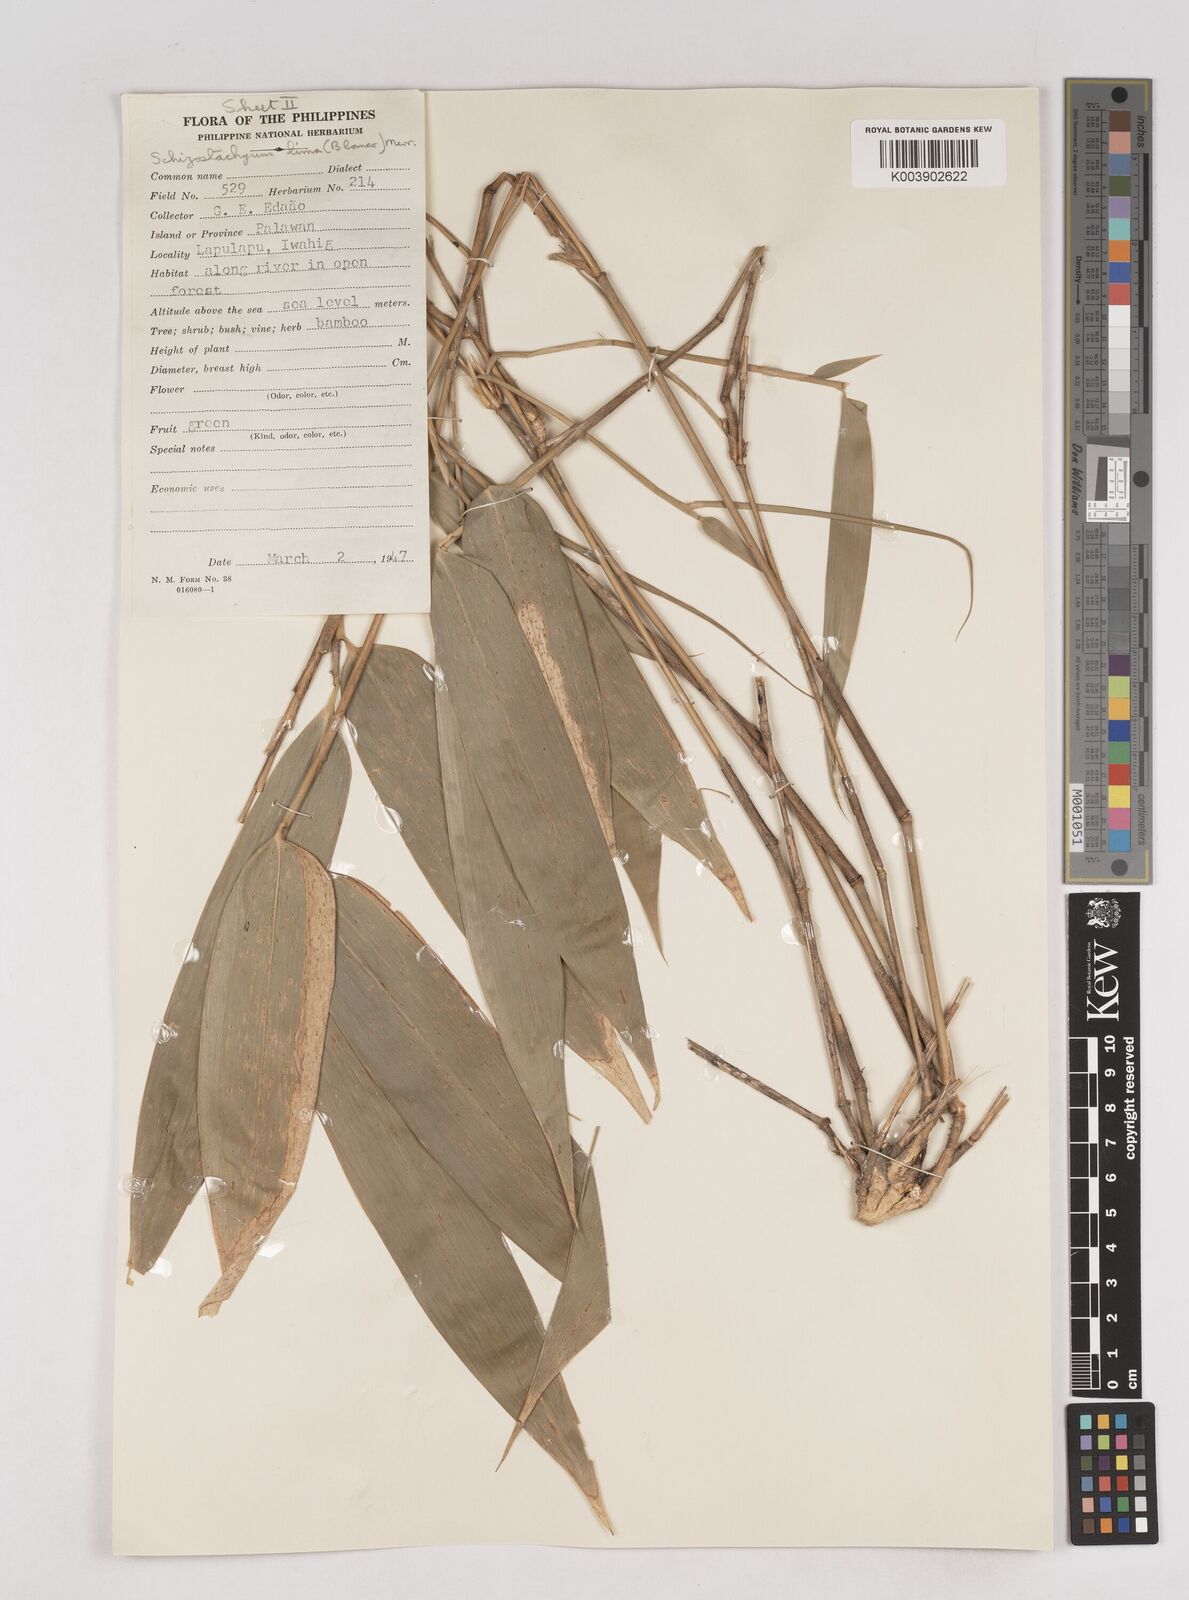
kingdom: Plantae
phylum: Tracheophyta
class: Liliopsida
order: Poales
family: Poaceae
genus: Schizostachyum
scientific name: Schizostachyum lima
